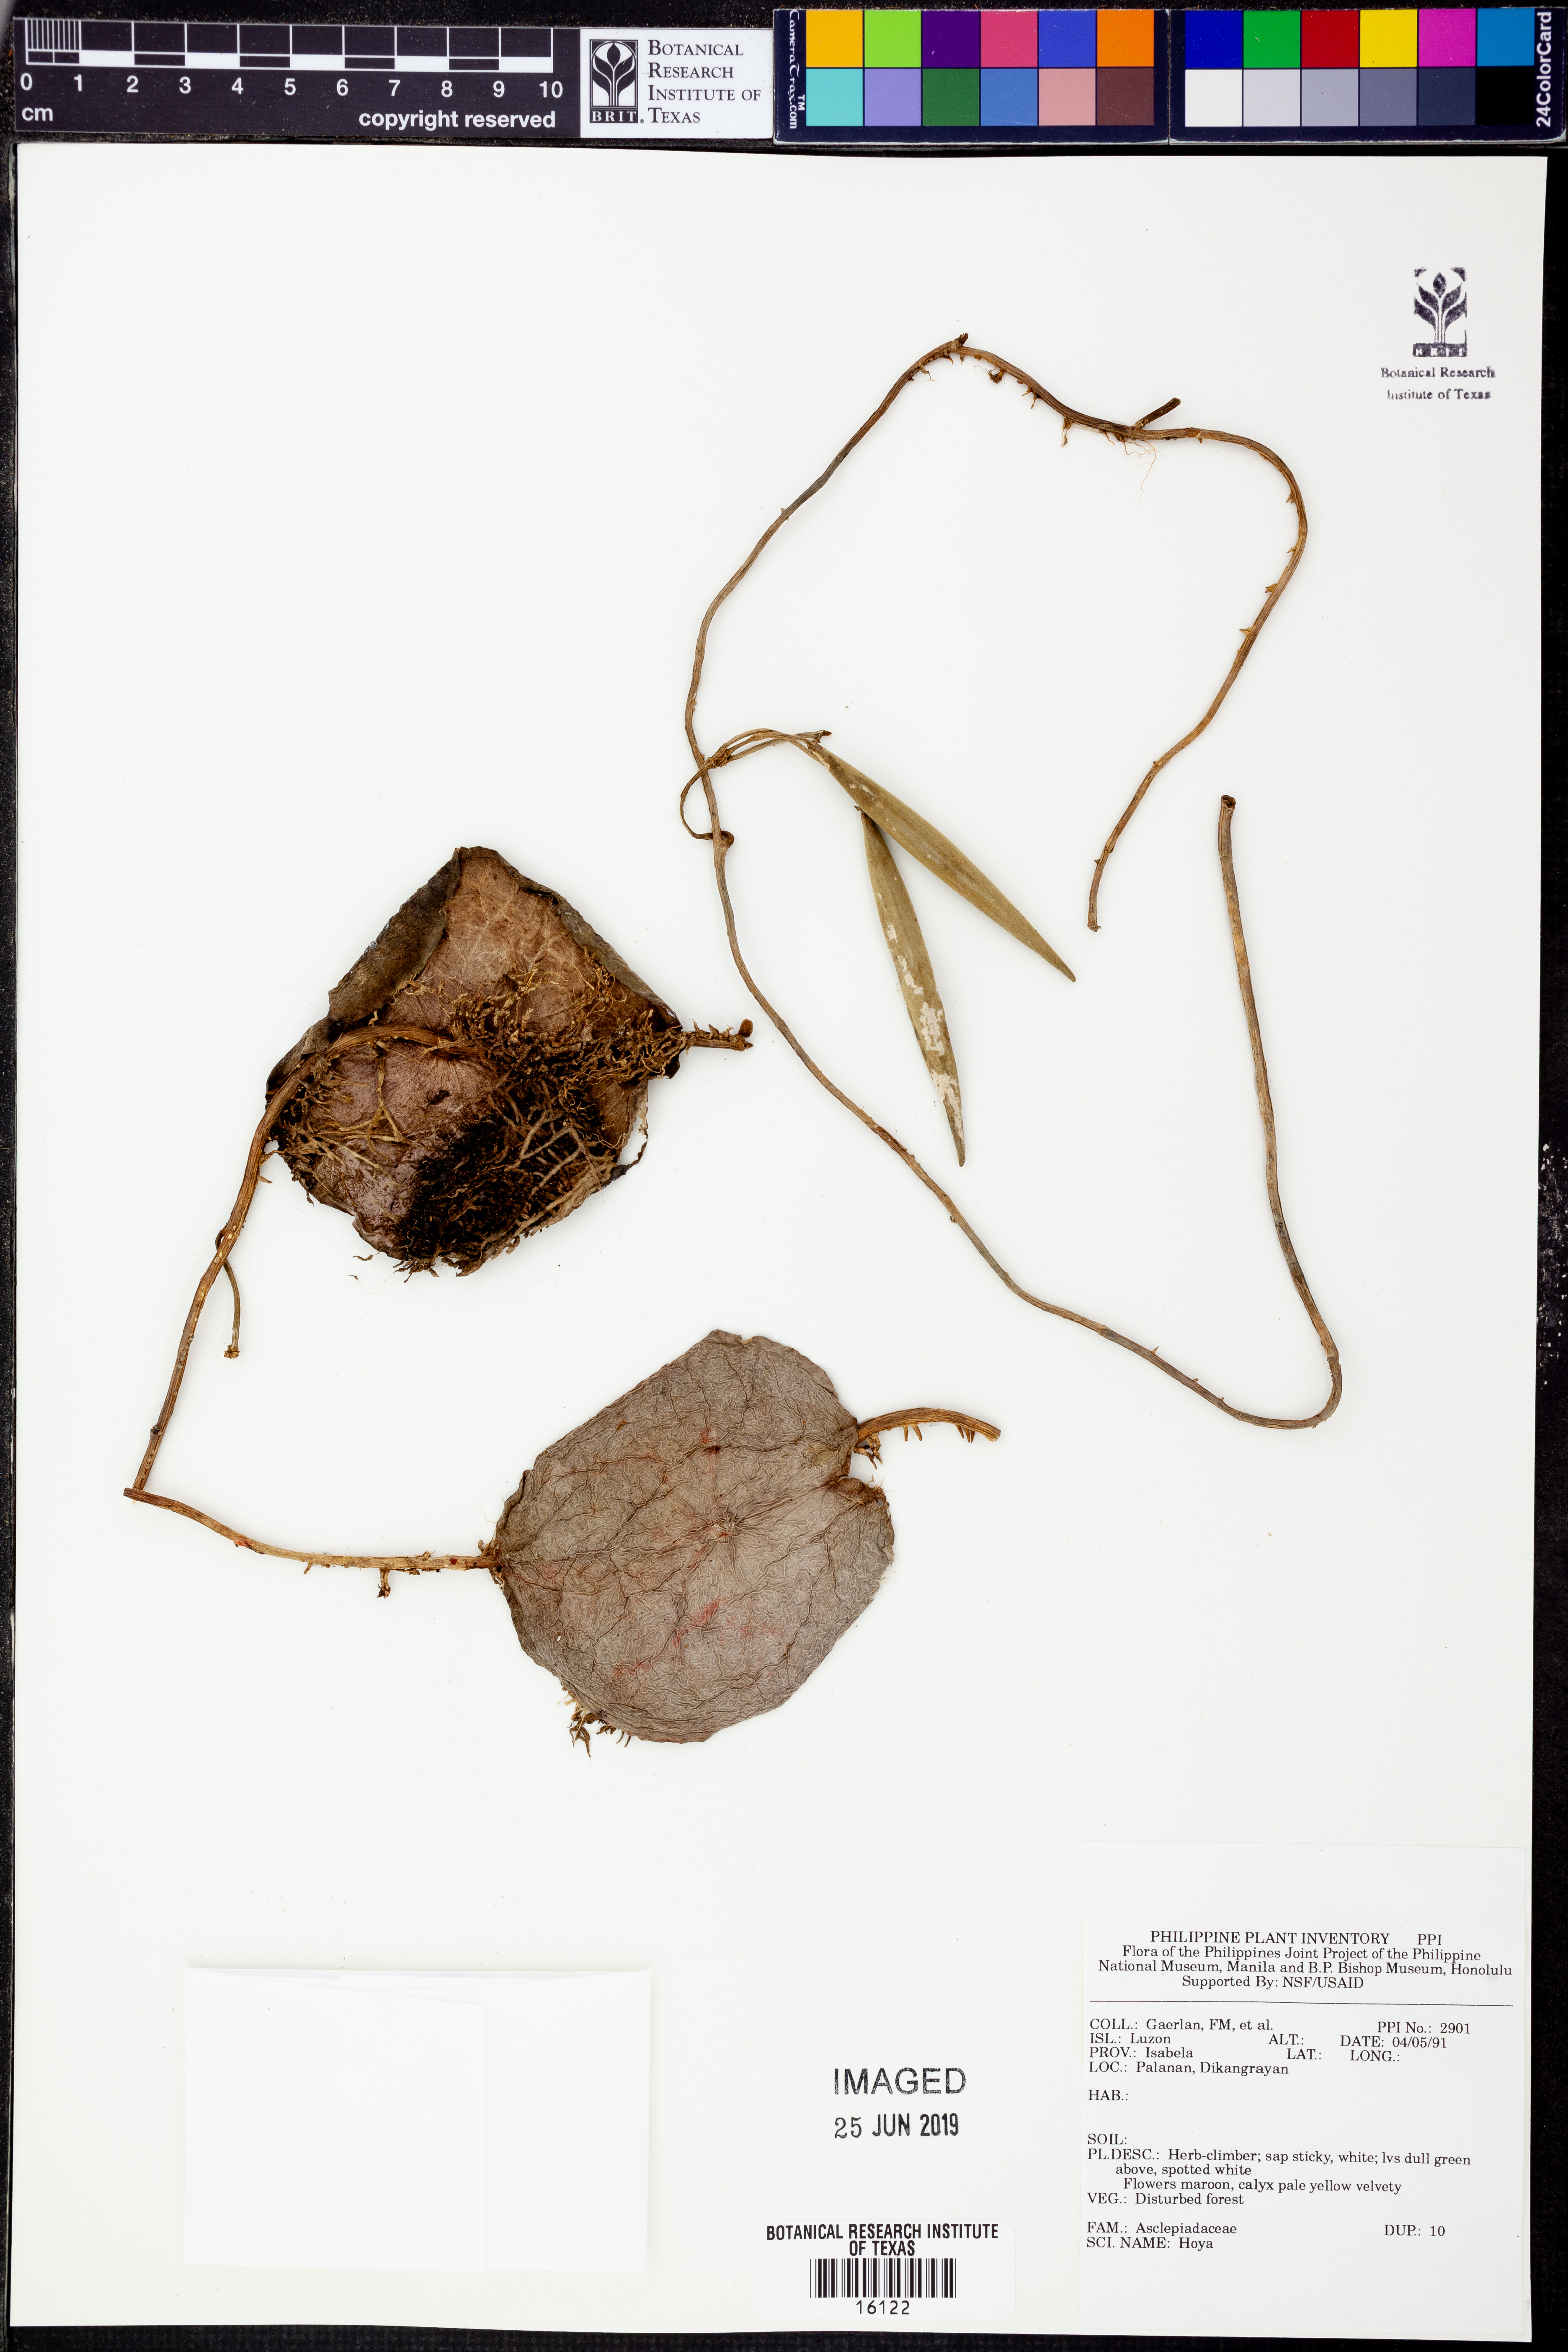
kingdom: Plantae
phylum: Tracheophyta
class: Magnoliopsida
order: Gentianales
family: Apocynaceae
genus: Hoya
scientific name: Hoya
